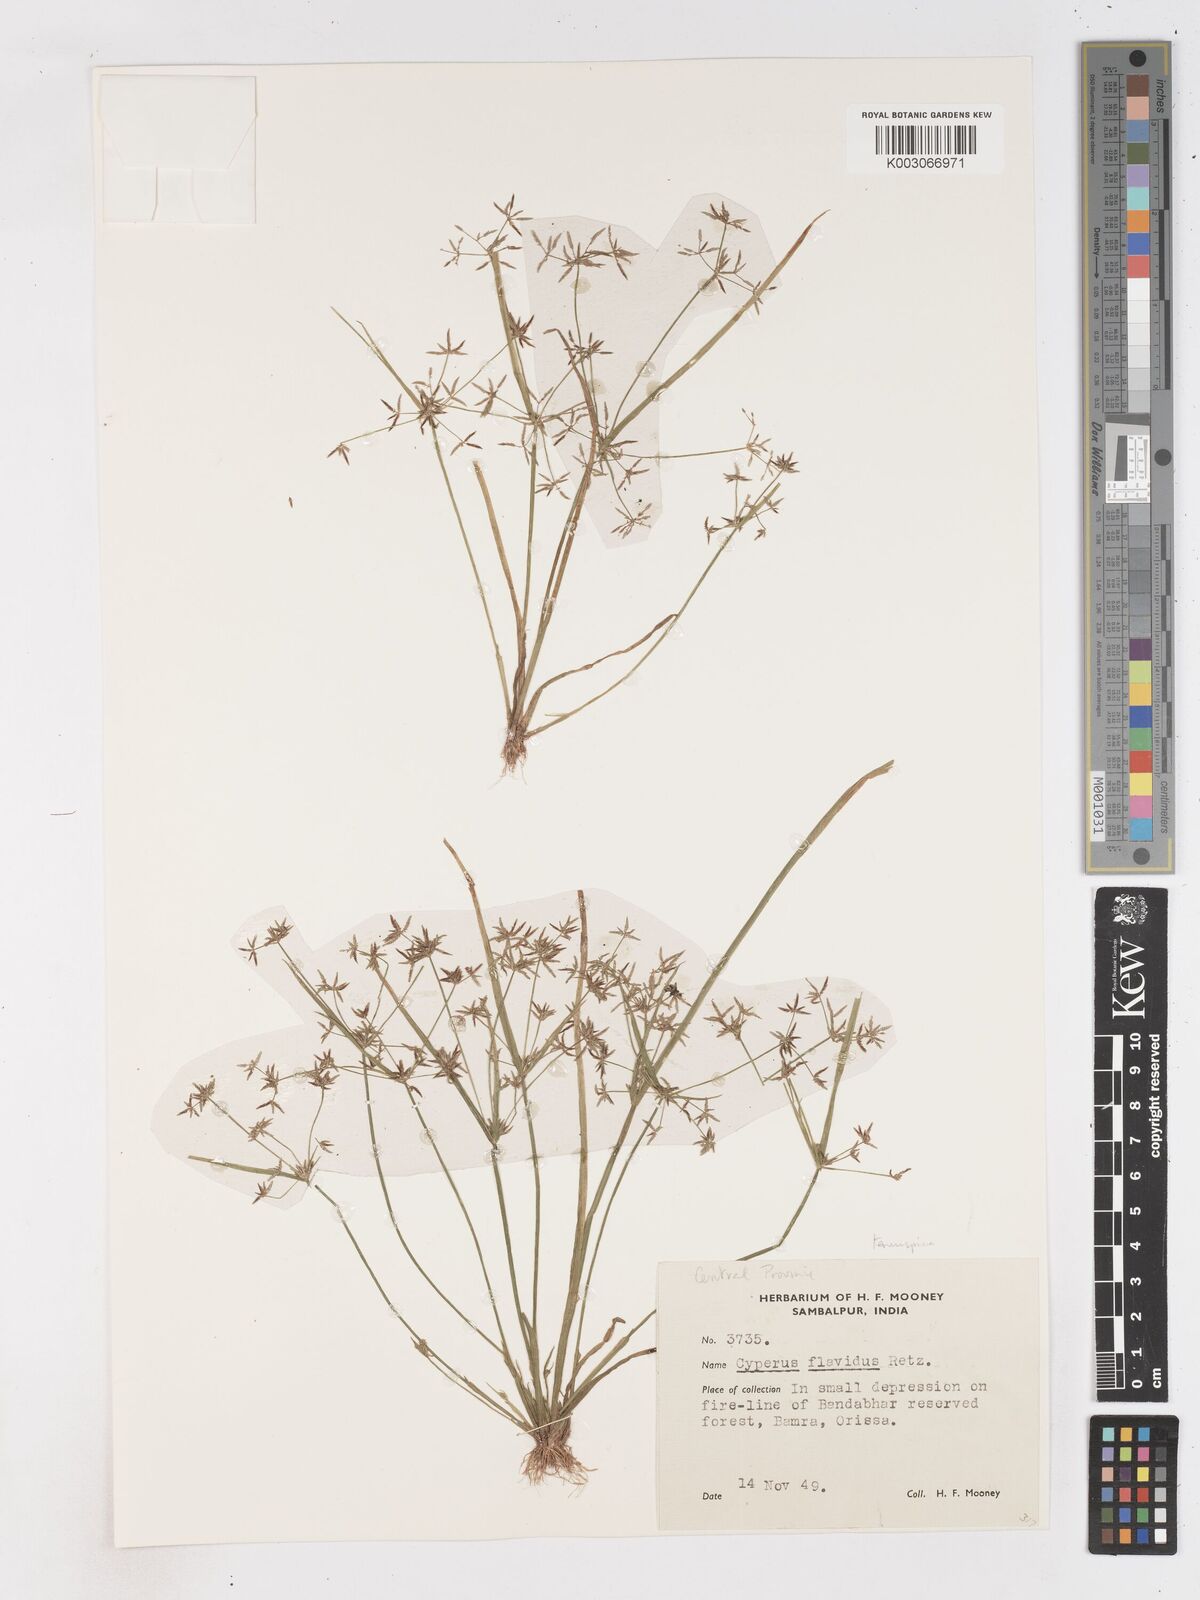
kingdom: Plantae
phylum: Tracheophyta
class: Liliopsida
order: Poales
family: Cyperaceae
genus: Cyperus
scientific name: Cyperus tenuispica
